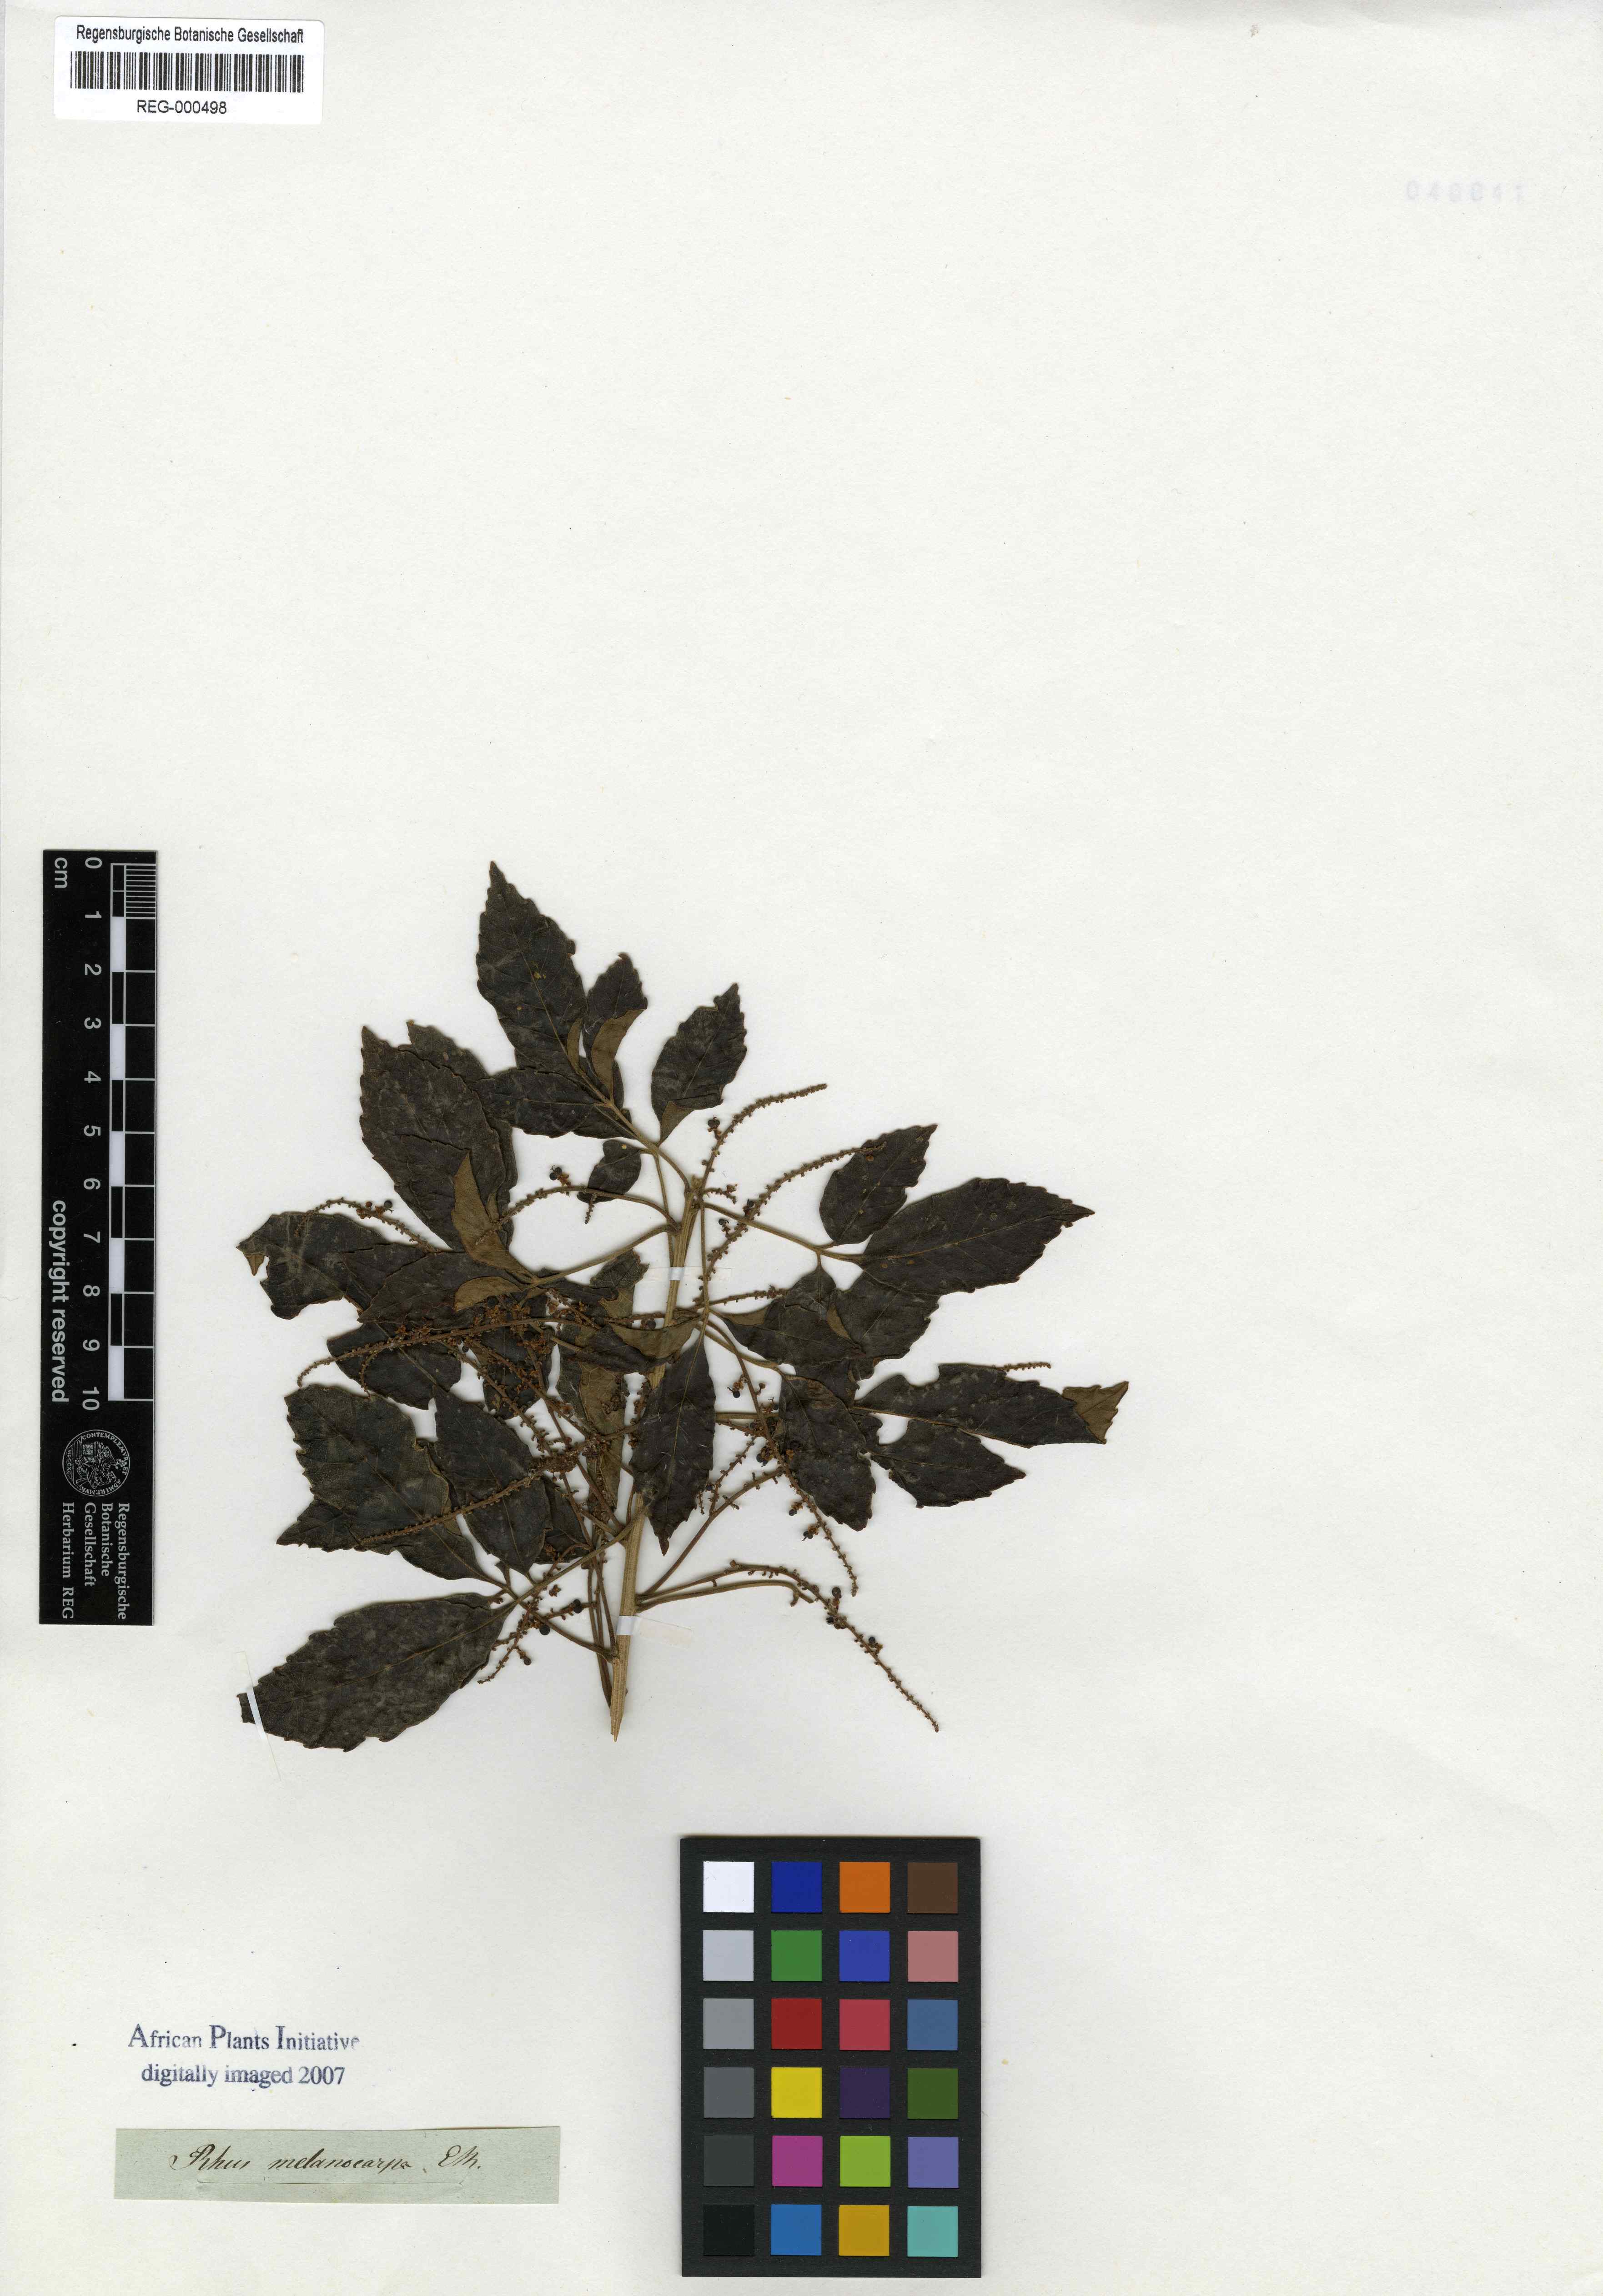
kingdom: Plantae
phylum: Tracheophyta
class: Magnoliopsida
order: Sapindales
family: Anacardiaceae
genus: Searsia
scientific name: Searsia tumulicola
